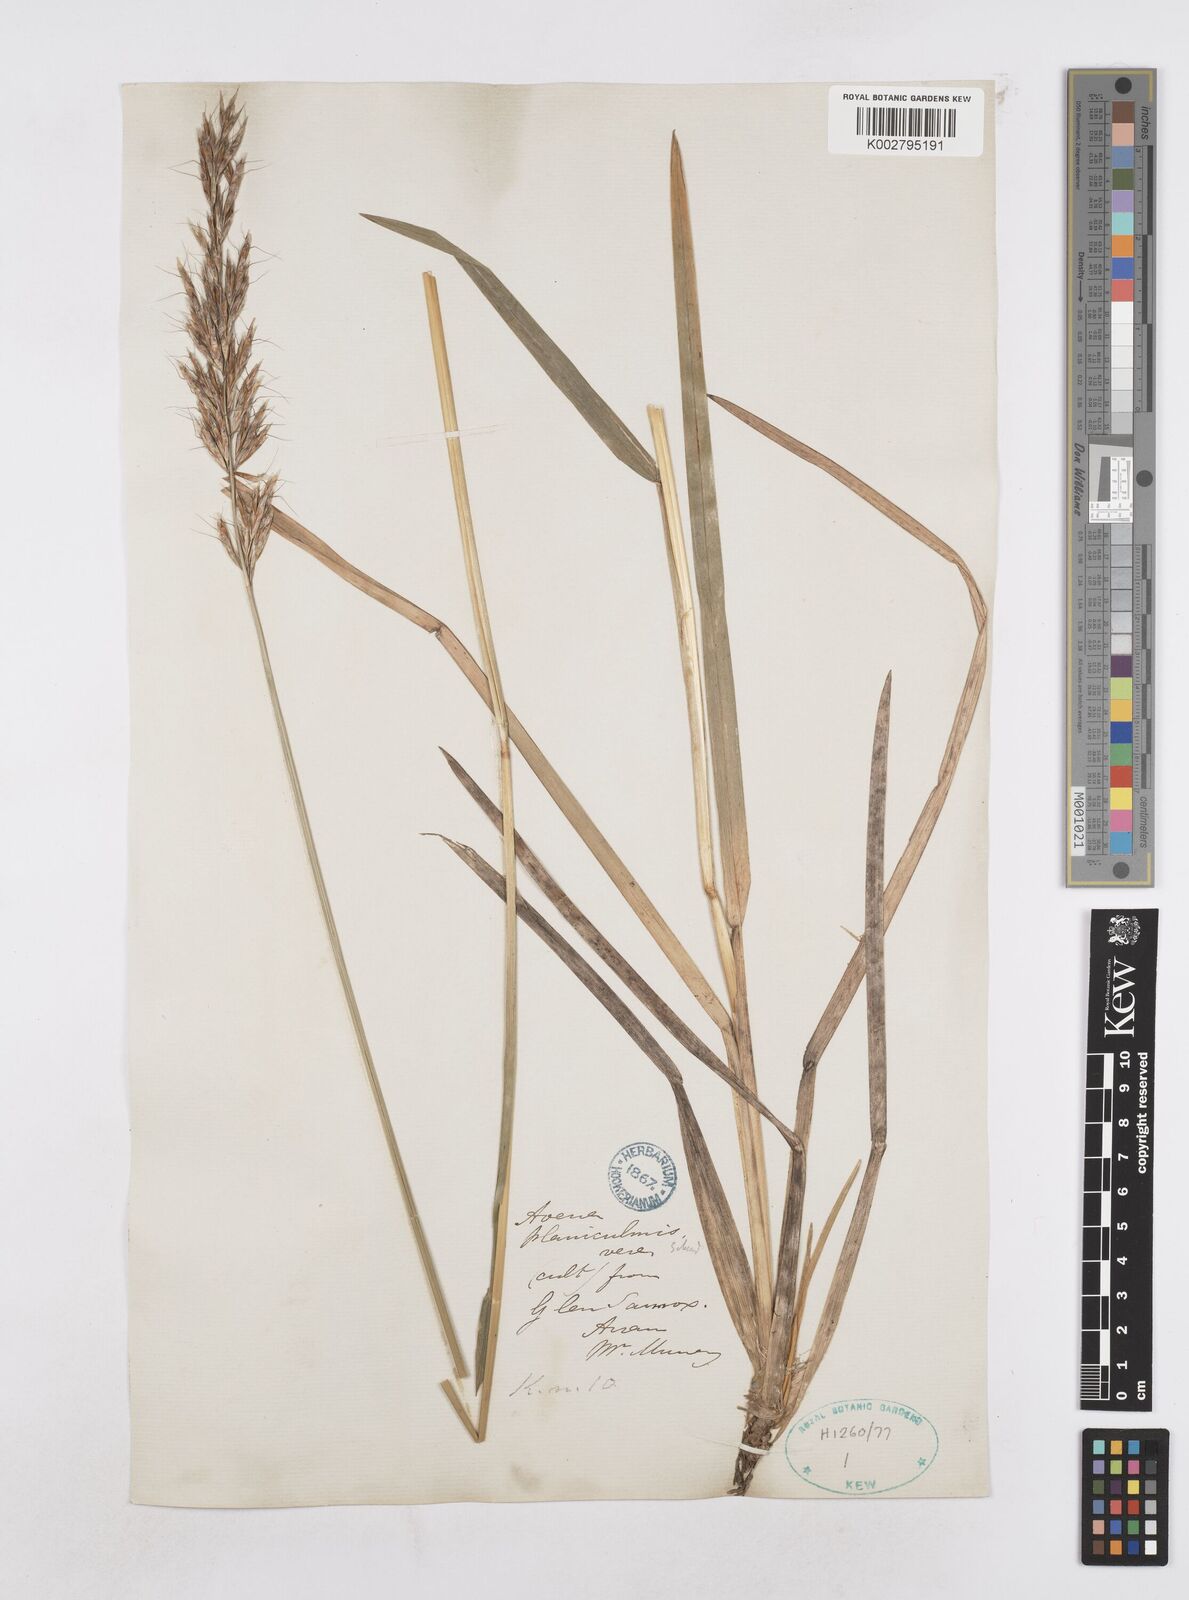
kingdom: Plantae
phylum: Tracheophyta
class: Liliopsida
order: Poales
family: Poaceae
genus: Helictochloa
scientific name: Helictochloa planiculmis
